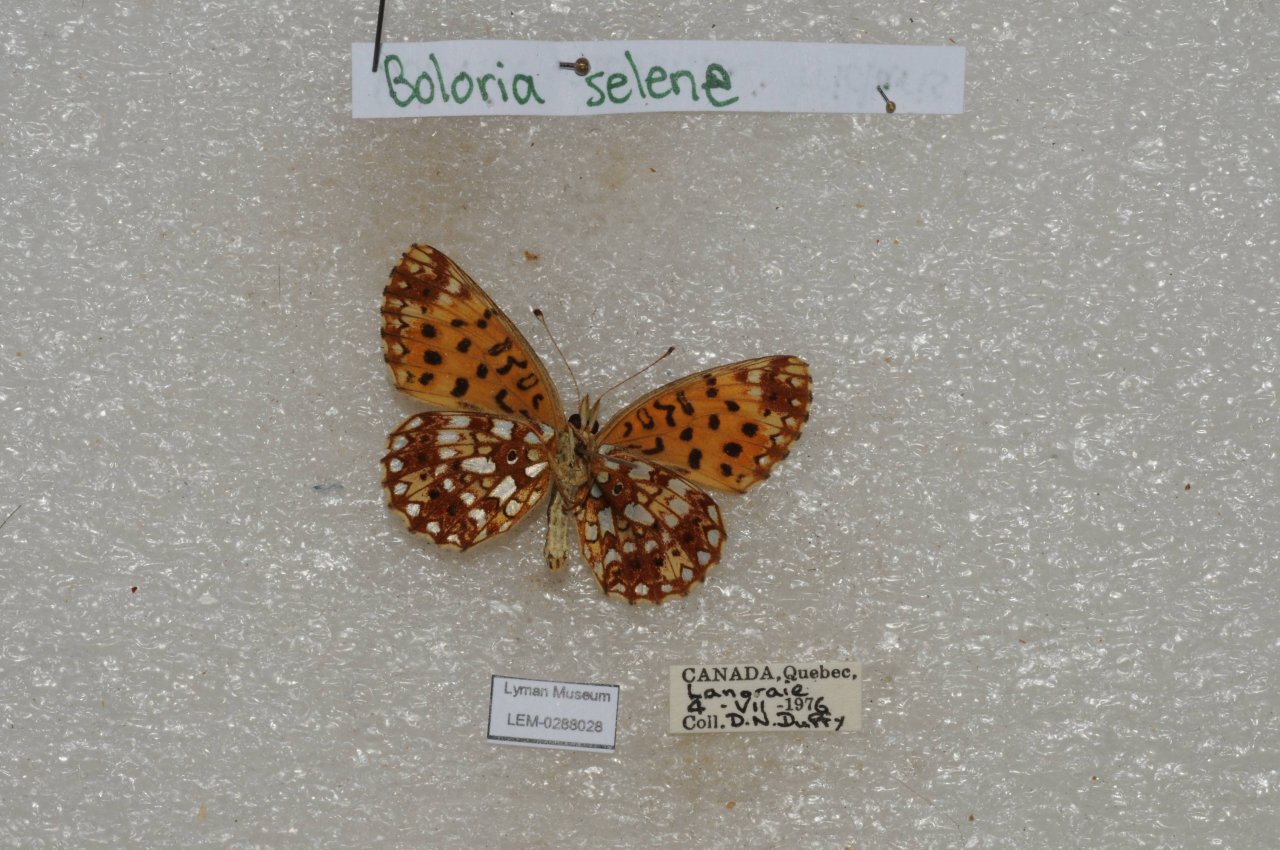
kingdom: Animalia
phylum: Arthropoda
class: Insecta
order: Lepidoptera
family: Nymphalidae
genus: Boloria
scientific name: Boloria selene
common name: Silver-bordered Fritillary
